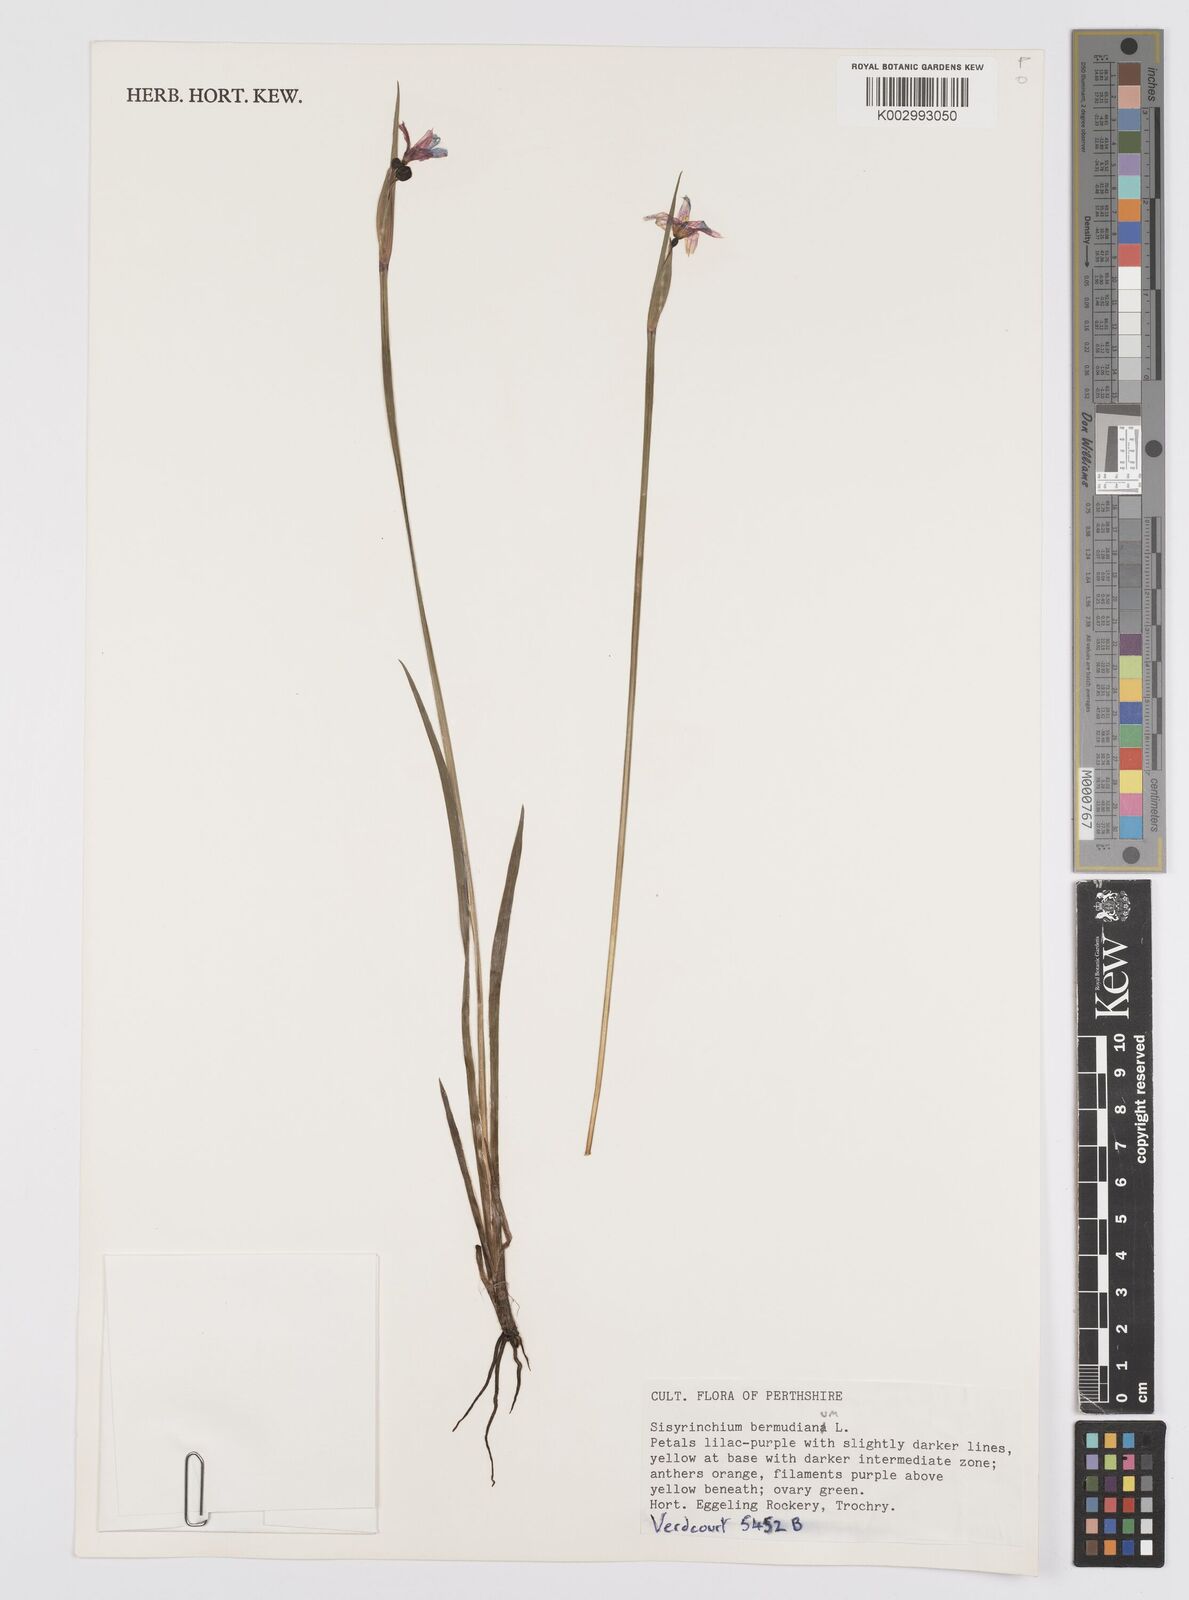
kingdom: Plantae
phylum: Tracheophyta
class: Liliopsida
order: Asparagales
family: Iridaceae
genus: Sisyrinchium
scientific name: Sisyrinchium bermudiana
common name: Blue-eyed-grass
